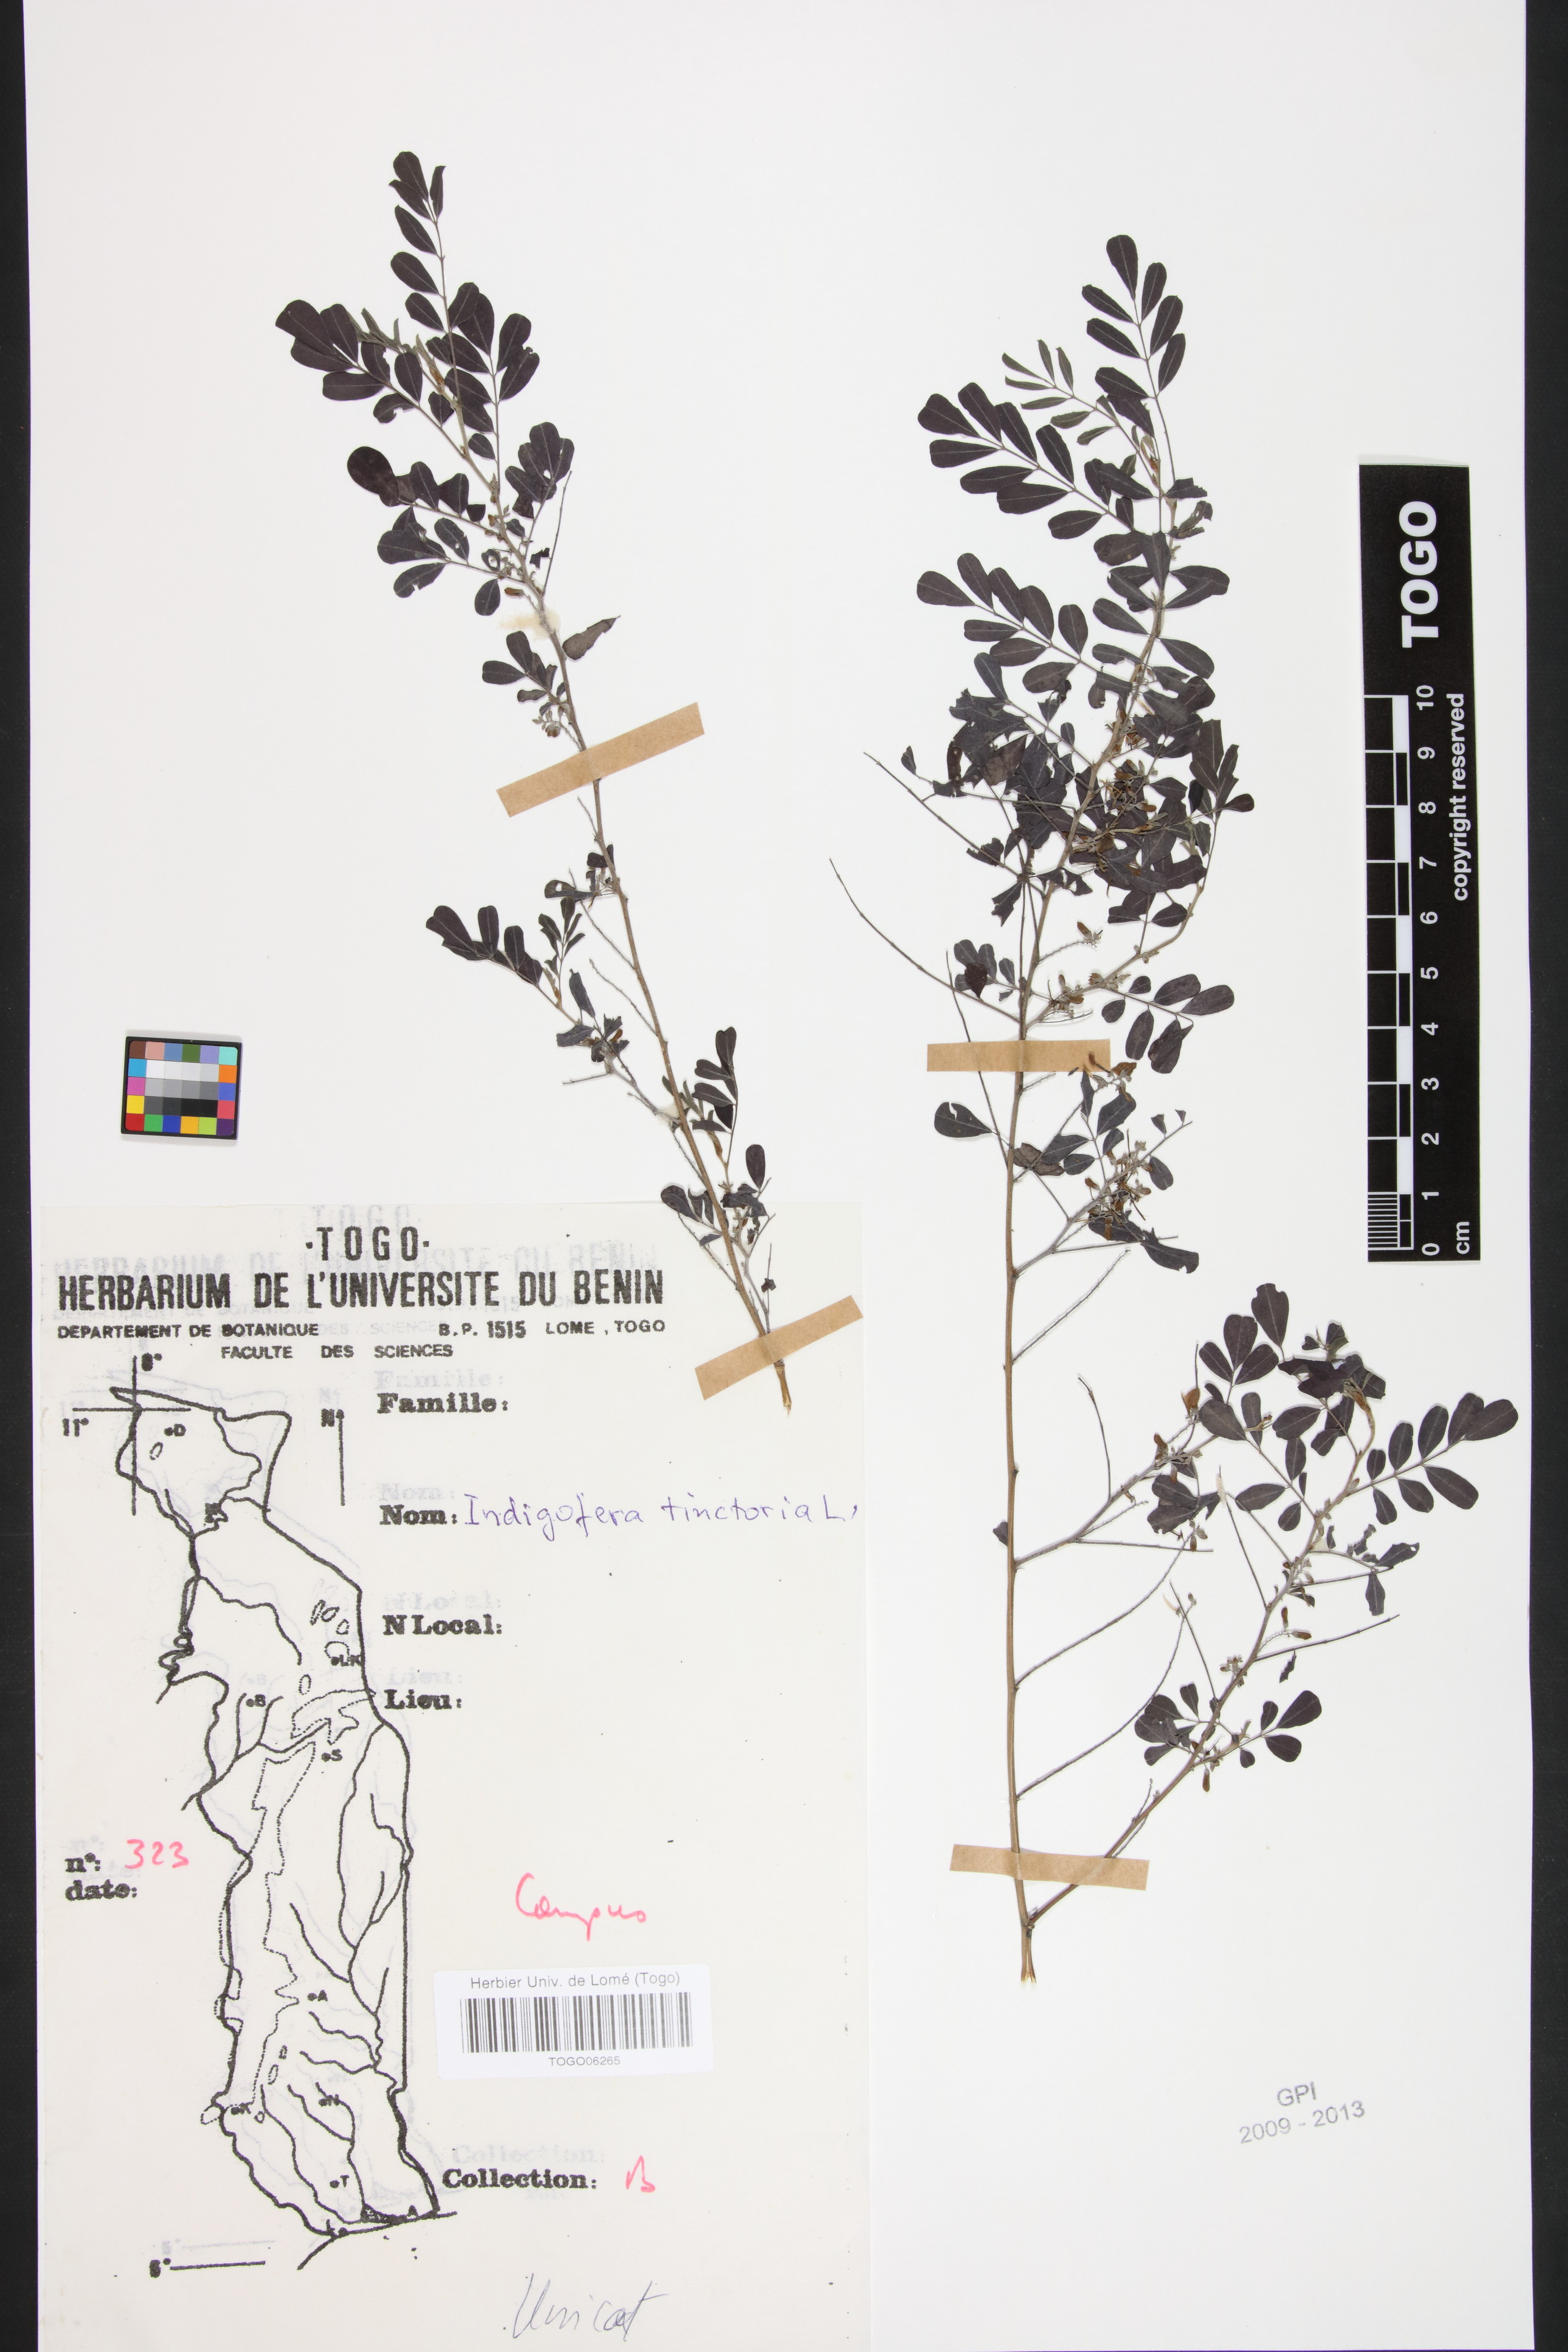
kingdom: Plantae
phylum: Tracheophyta
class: Magnoliopsida
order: Fabales
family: Fabaceae
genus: Indigofera
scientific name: Indigofera tinctoria
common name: True indigo
